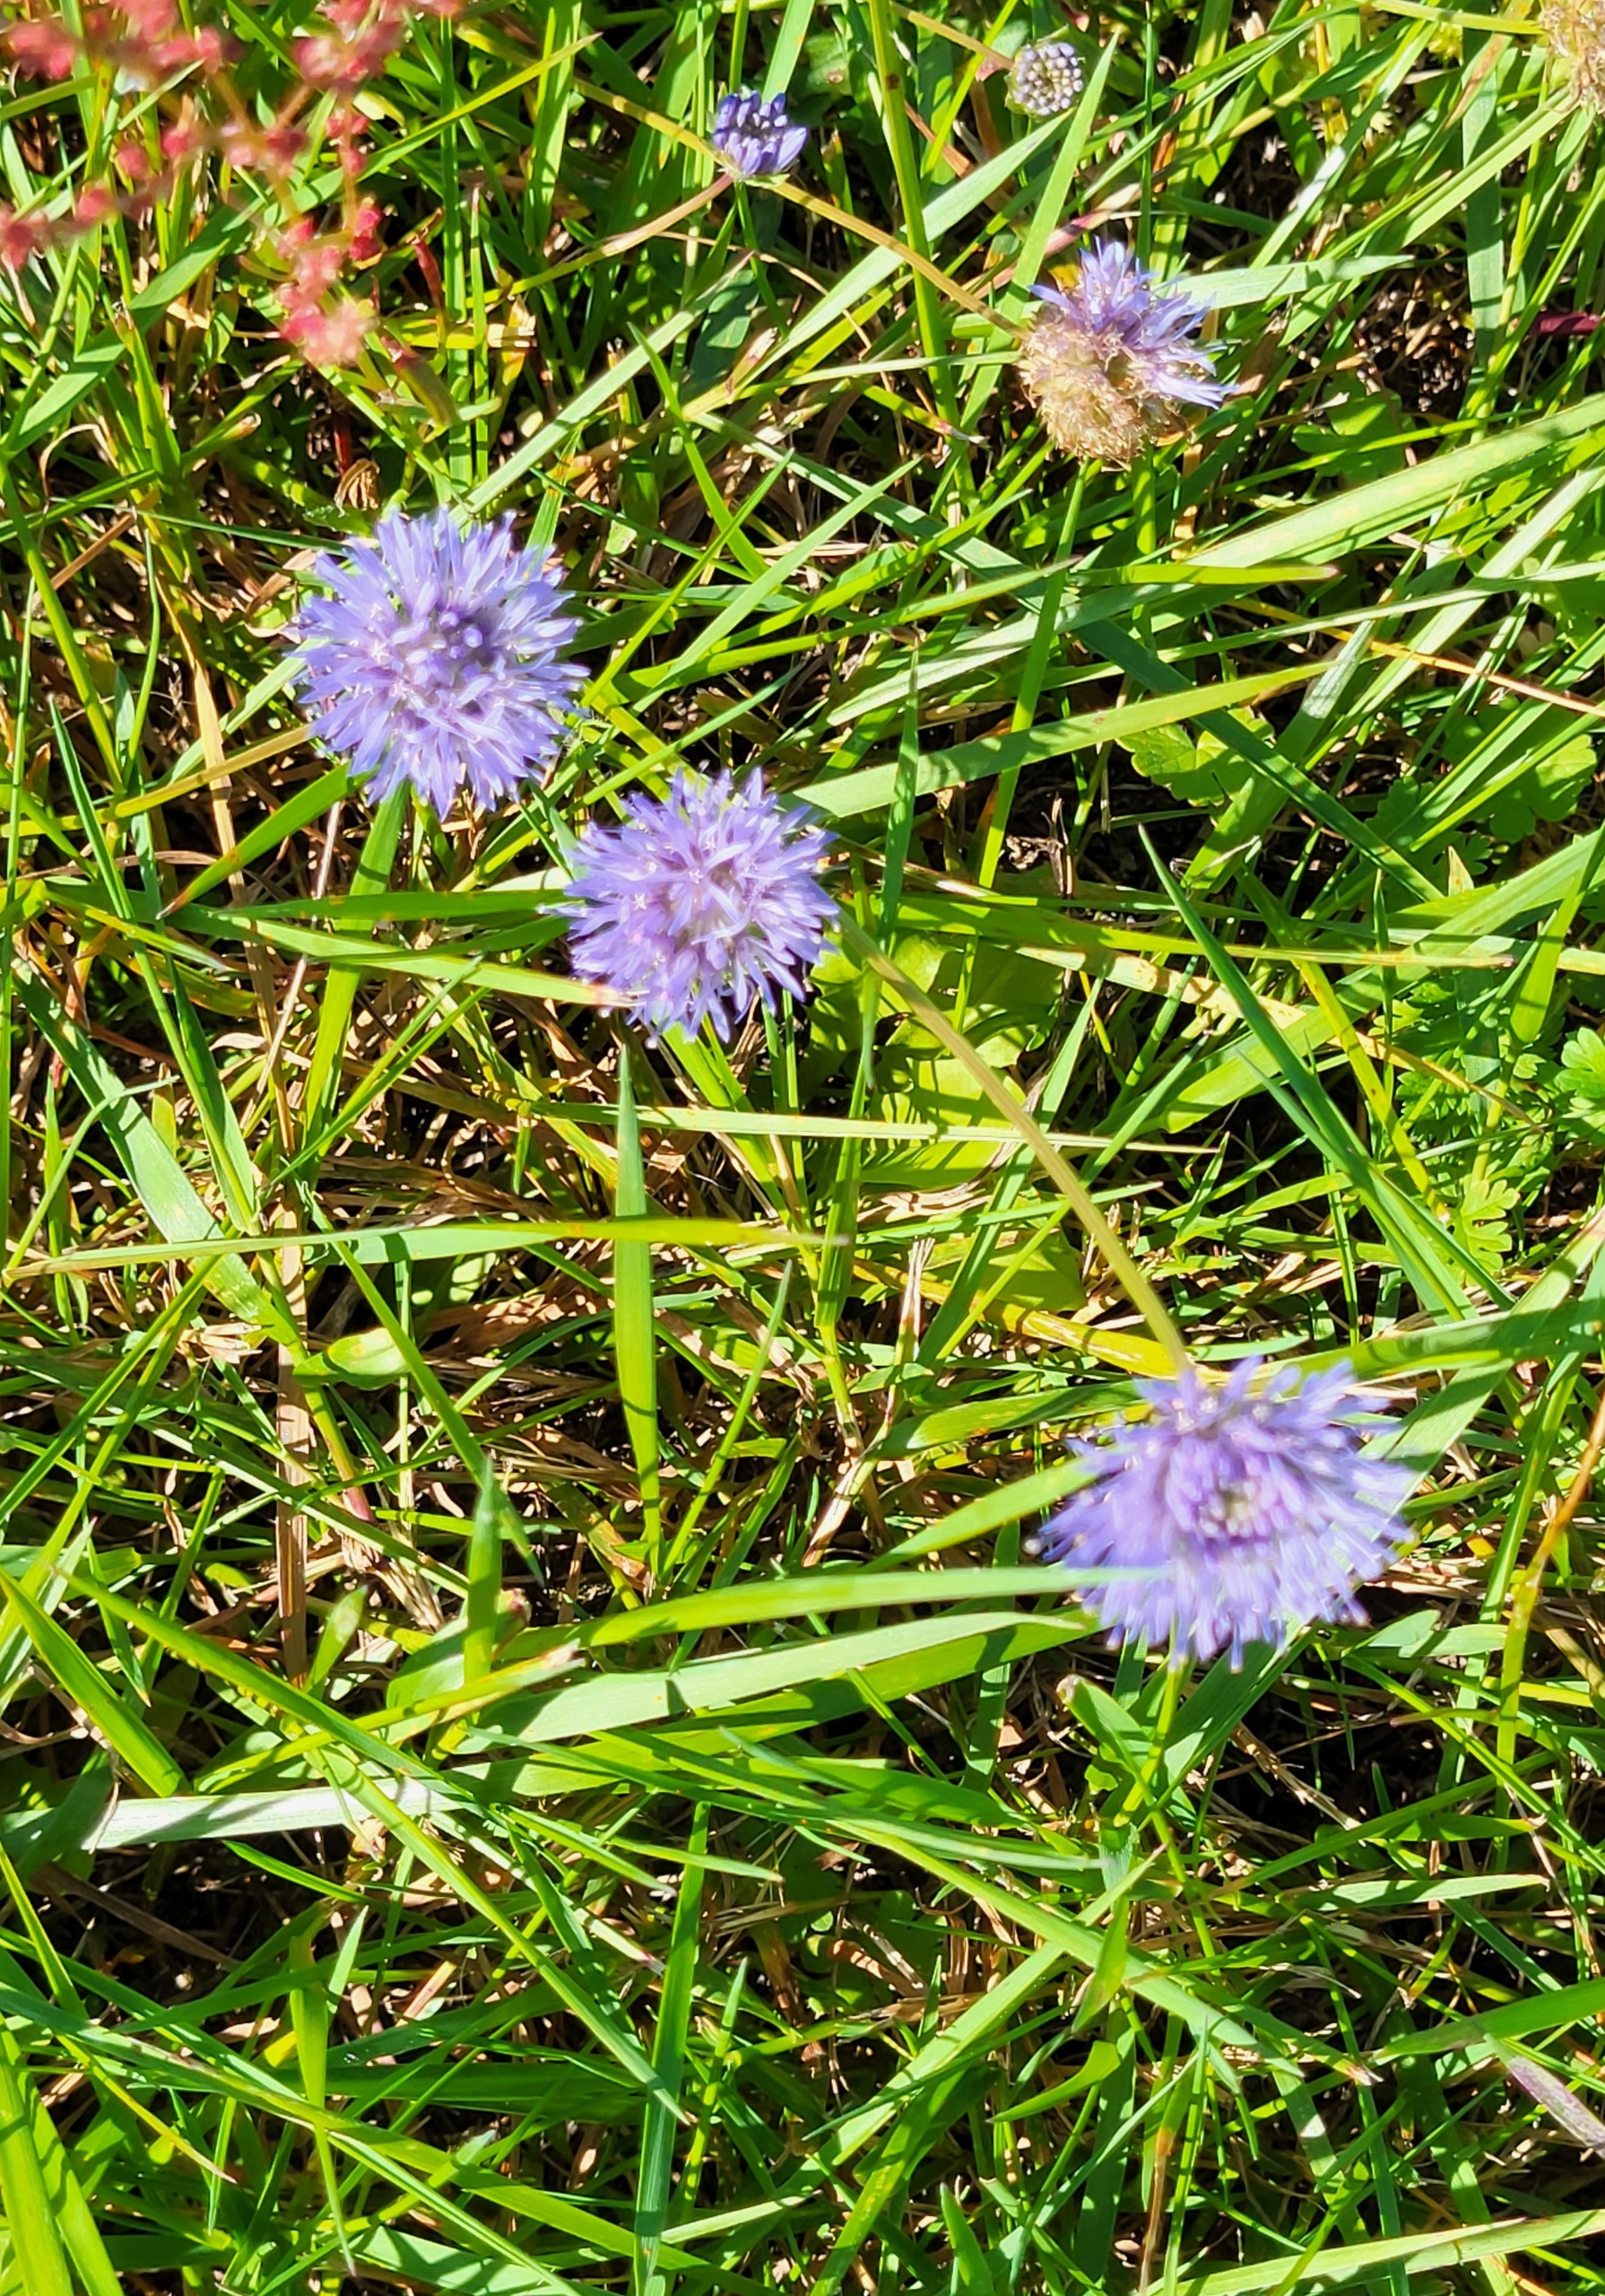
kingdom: Plantae
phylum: Tracheophyta
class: Magnoliopsida
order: Asterales
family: Campanulaceae
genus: Jasione
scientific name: Jasione montana
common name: Blåmunke
